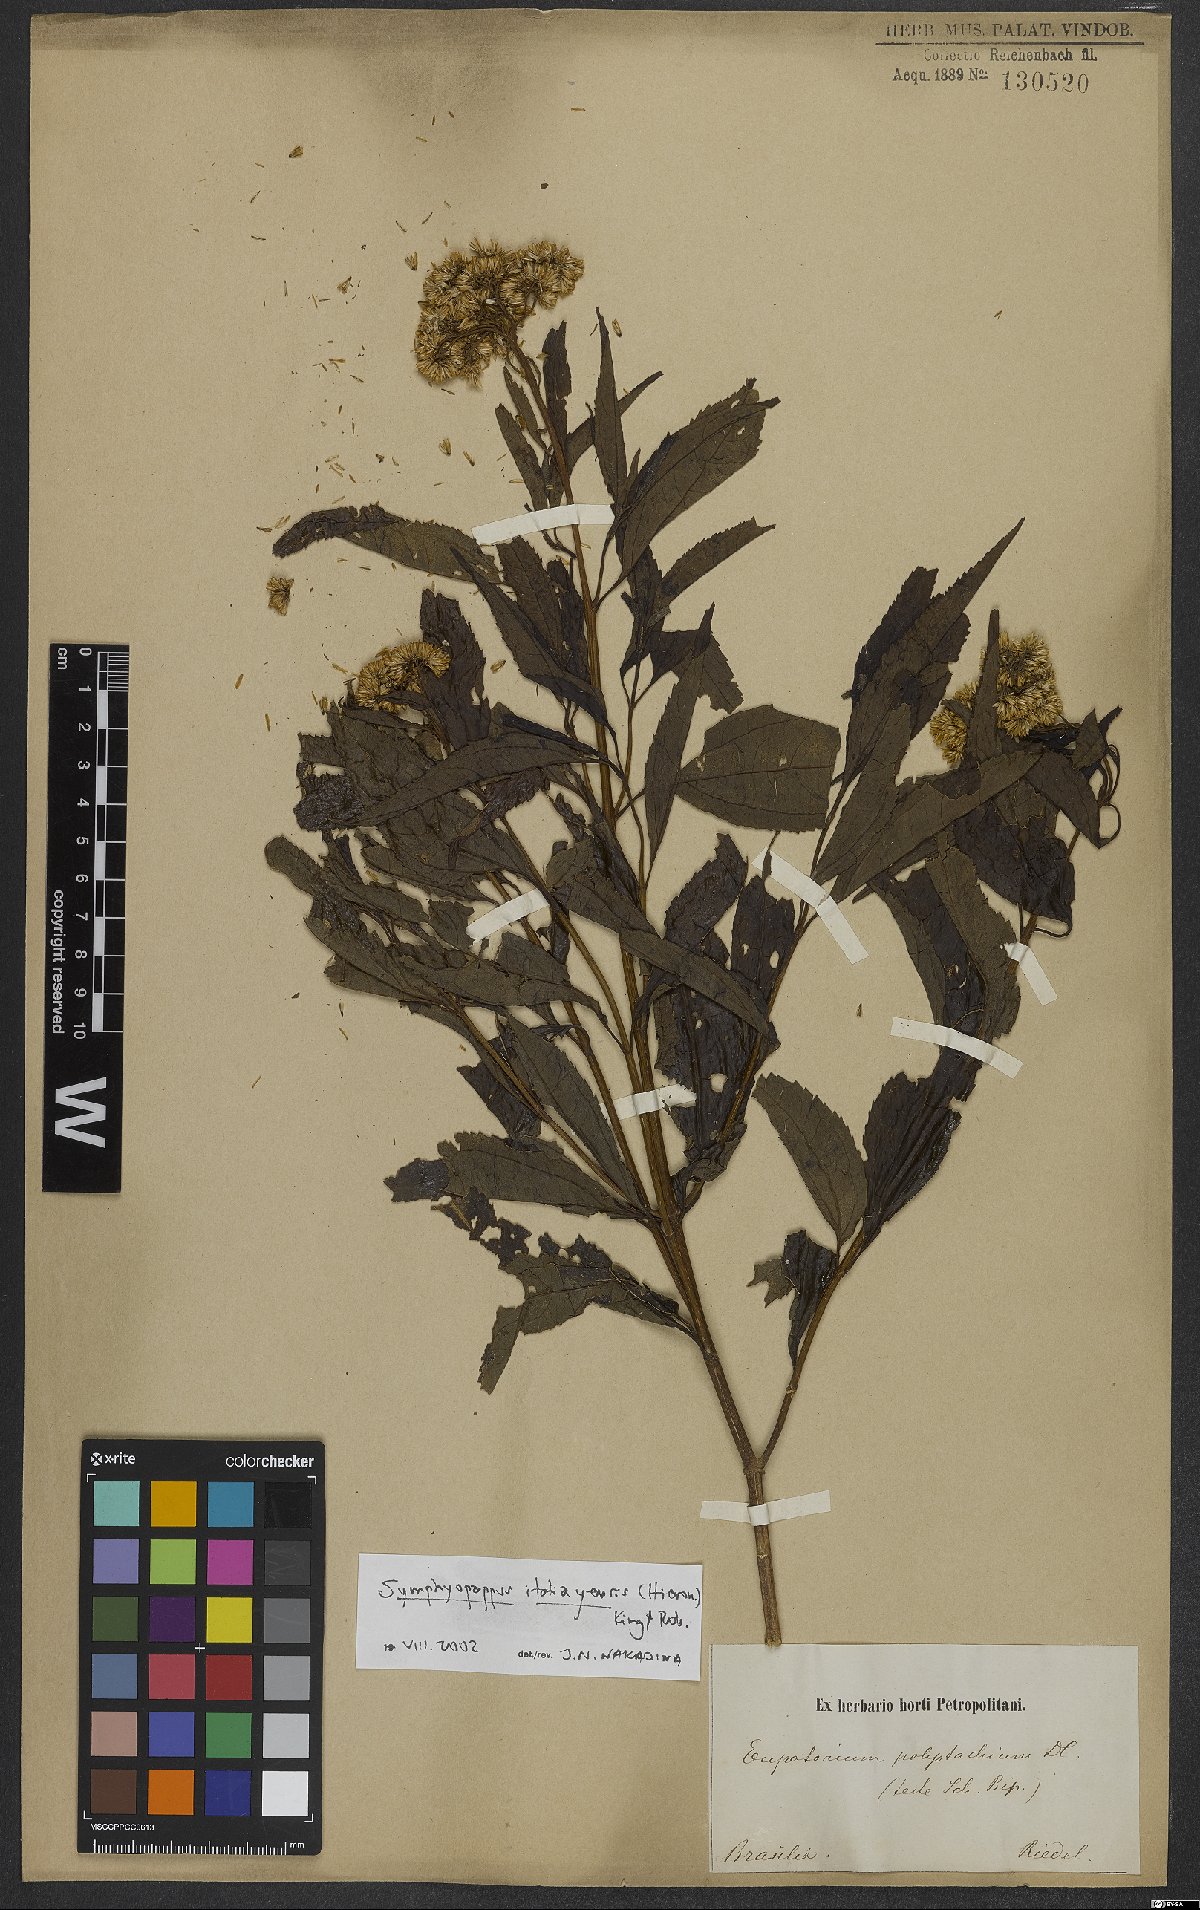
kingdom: Plantae
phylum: Tracheophyta
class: Magnoliopsida
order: Asterales
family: Asteraceae
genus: Symphyopappus
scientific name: Symphyopappus itatiayensis
